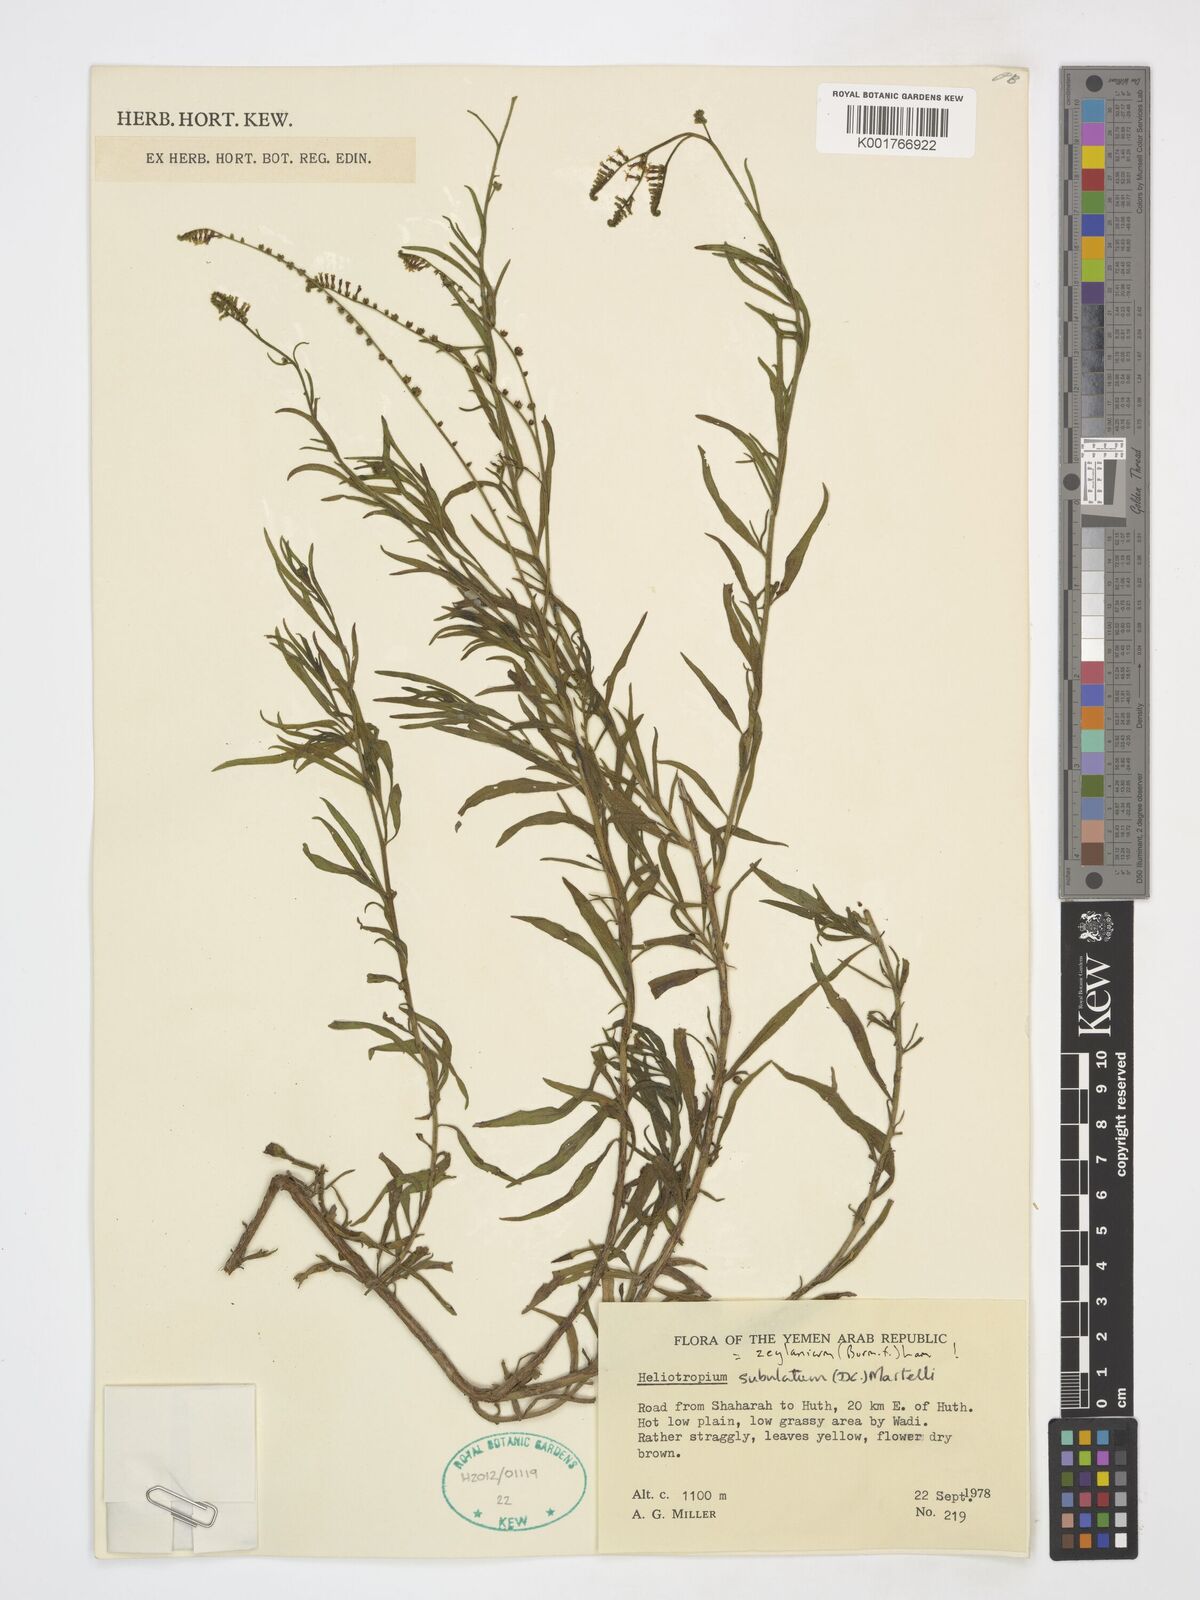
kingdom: Plantae
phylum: Tracheophyta
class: Magnoliopsida
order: Boraginales
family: Heliotropiaceae
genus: Heliotropium
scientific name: Heliotropium zeylanicum
